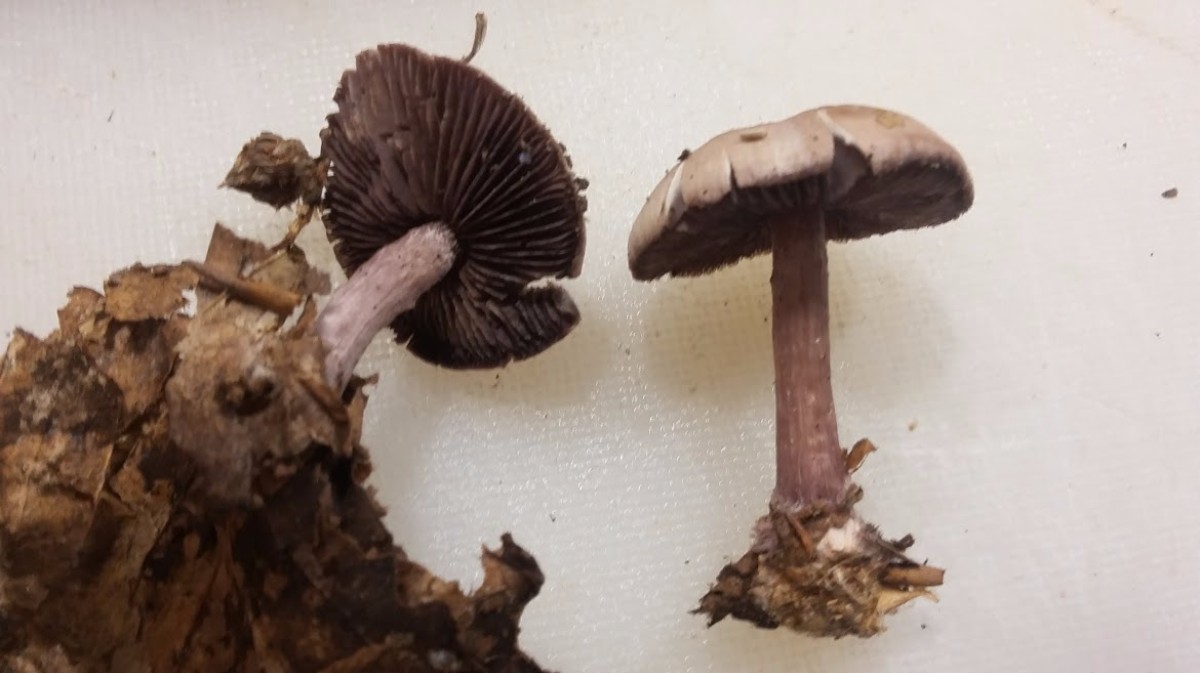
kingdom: Fungi
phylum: Basidiomycota
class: Agaricomycetes
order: Agaricales
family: Mycenaceae
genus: Mycena
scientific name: Mycena pelianthina
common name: mørkbladet huesvamp
